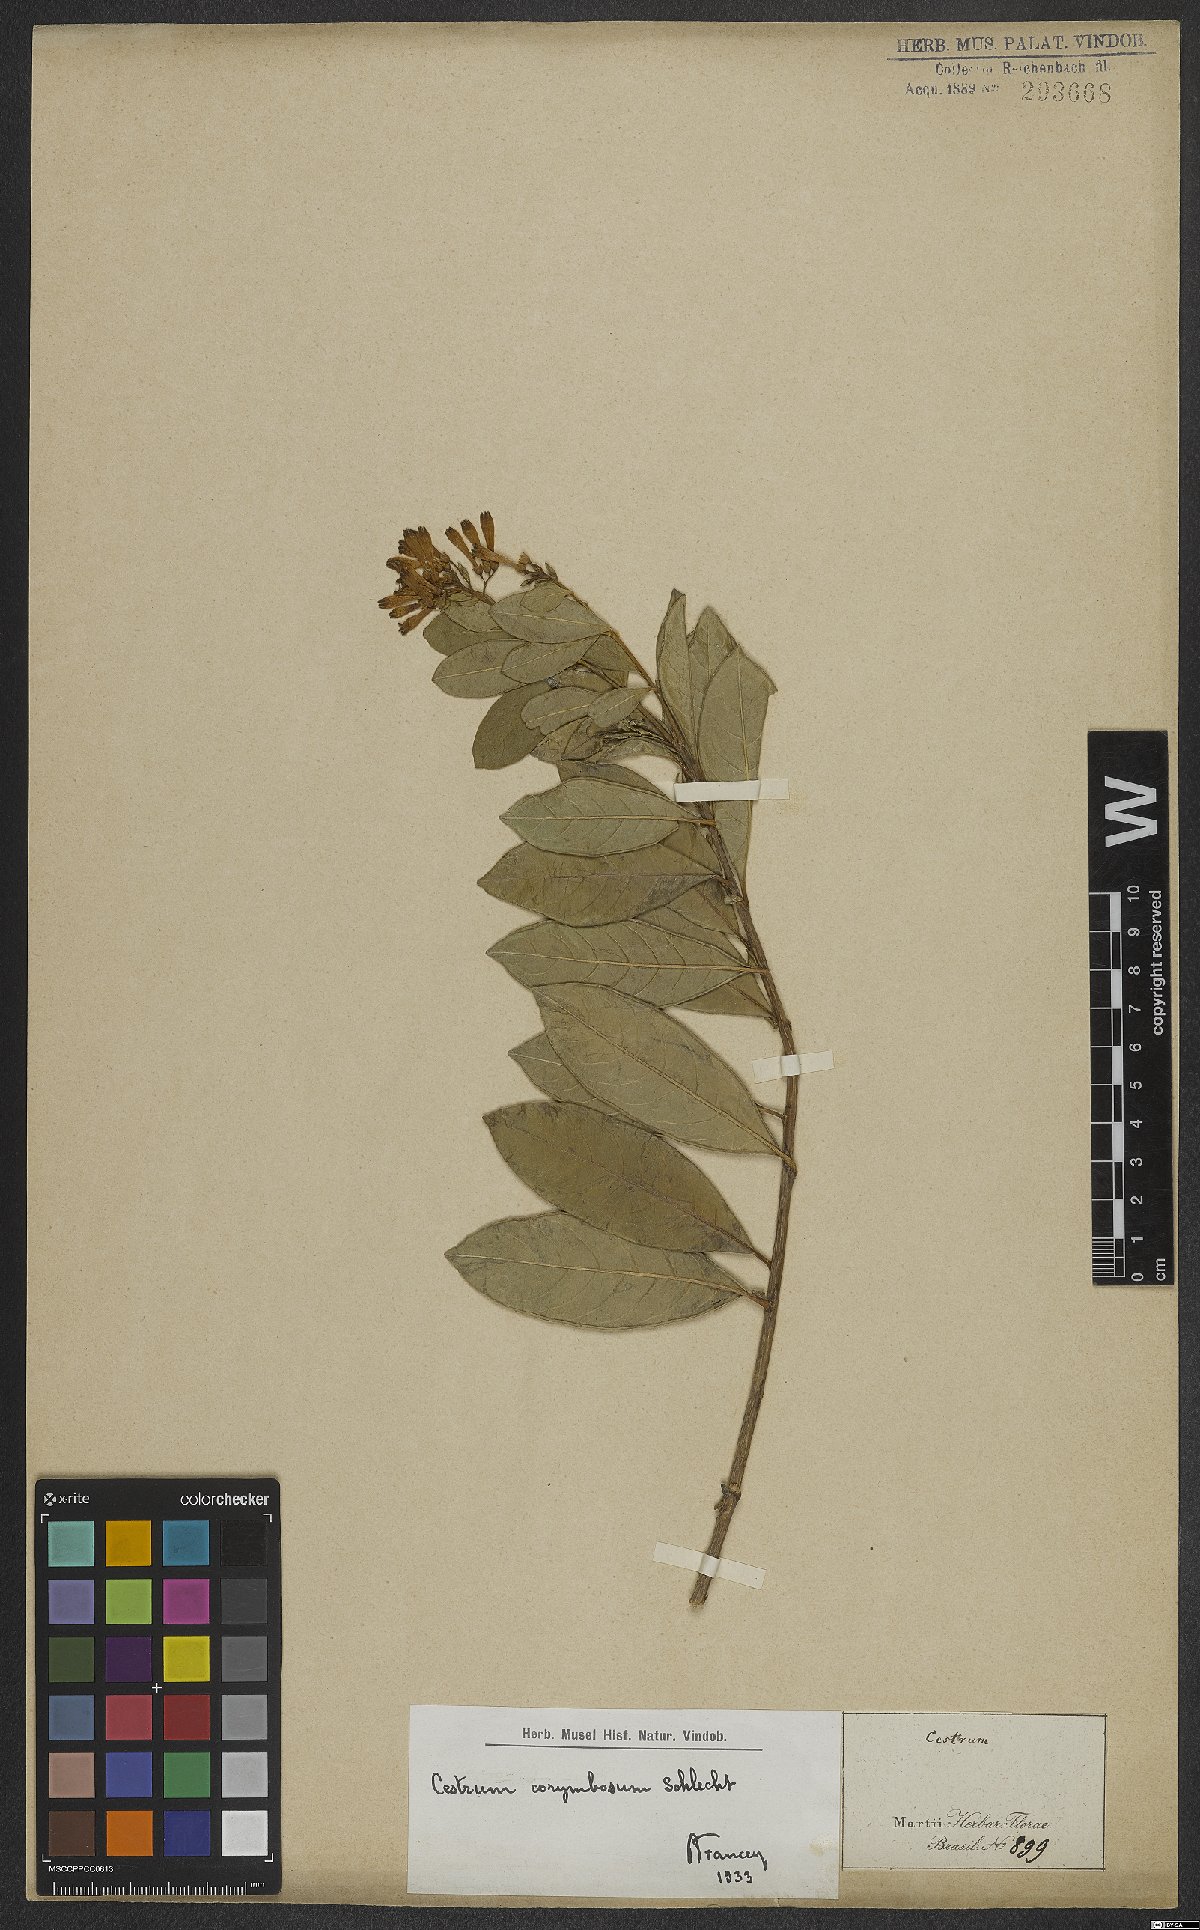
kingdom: Plantae
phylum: Tracheophyta
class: Magnoliopsida
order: Solanales
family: Solanaceae
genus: Cestrum
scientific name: Cestrum corymbosum
